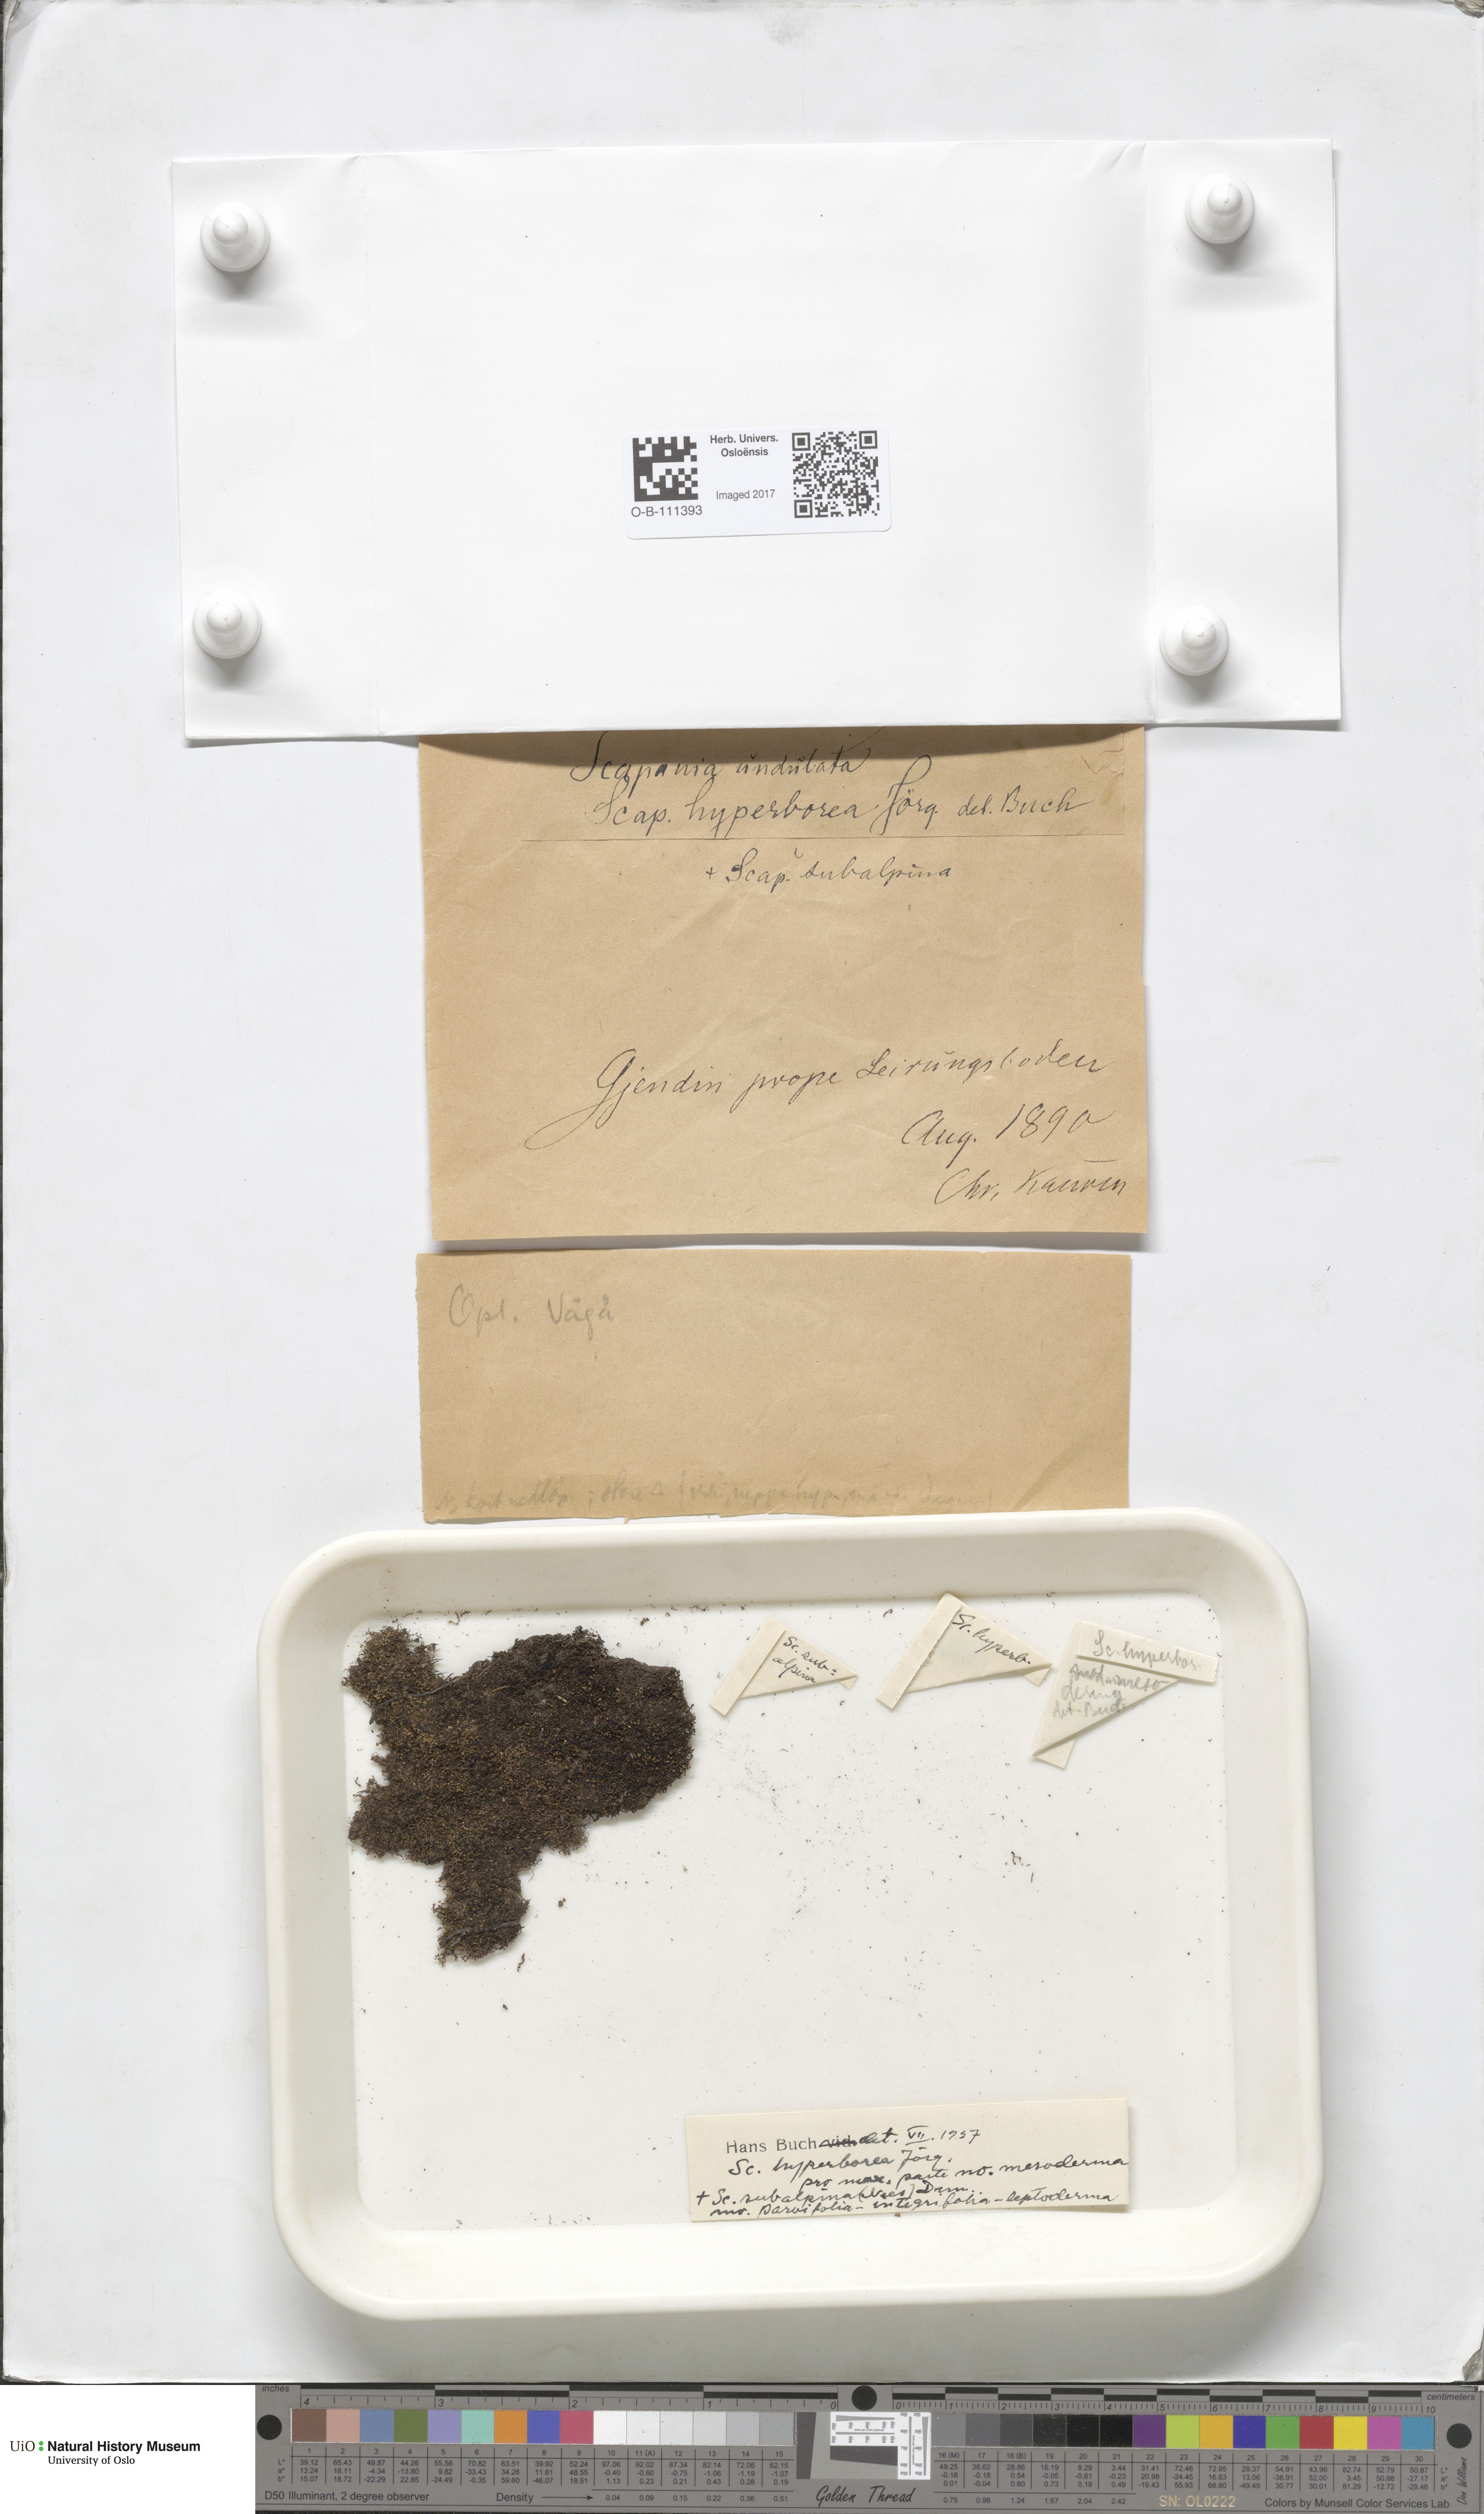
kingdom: Plantae
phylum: Marchantiophyta
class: Jungermanniopsida
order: Jungermanniales
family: Scapaniaceae
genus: Scapania
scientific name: Scapania hyperborea
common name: Northern earwort
